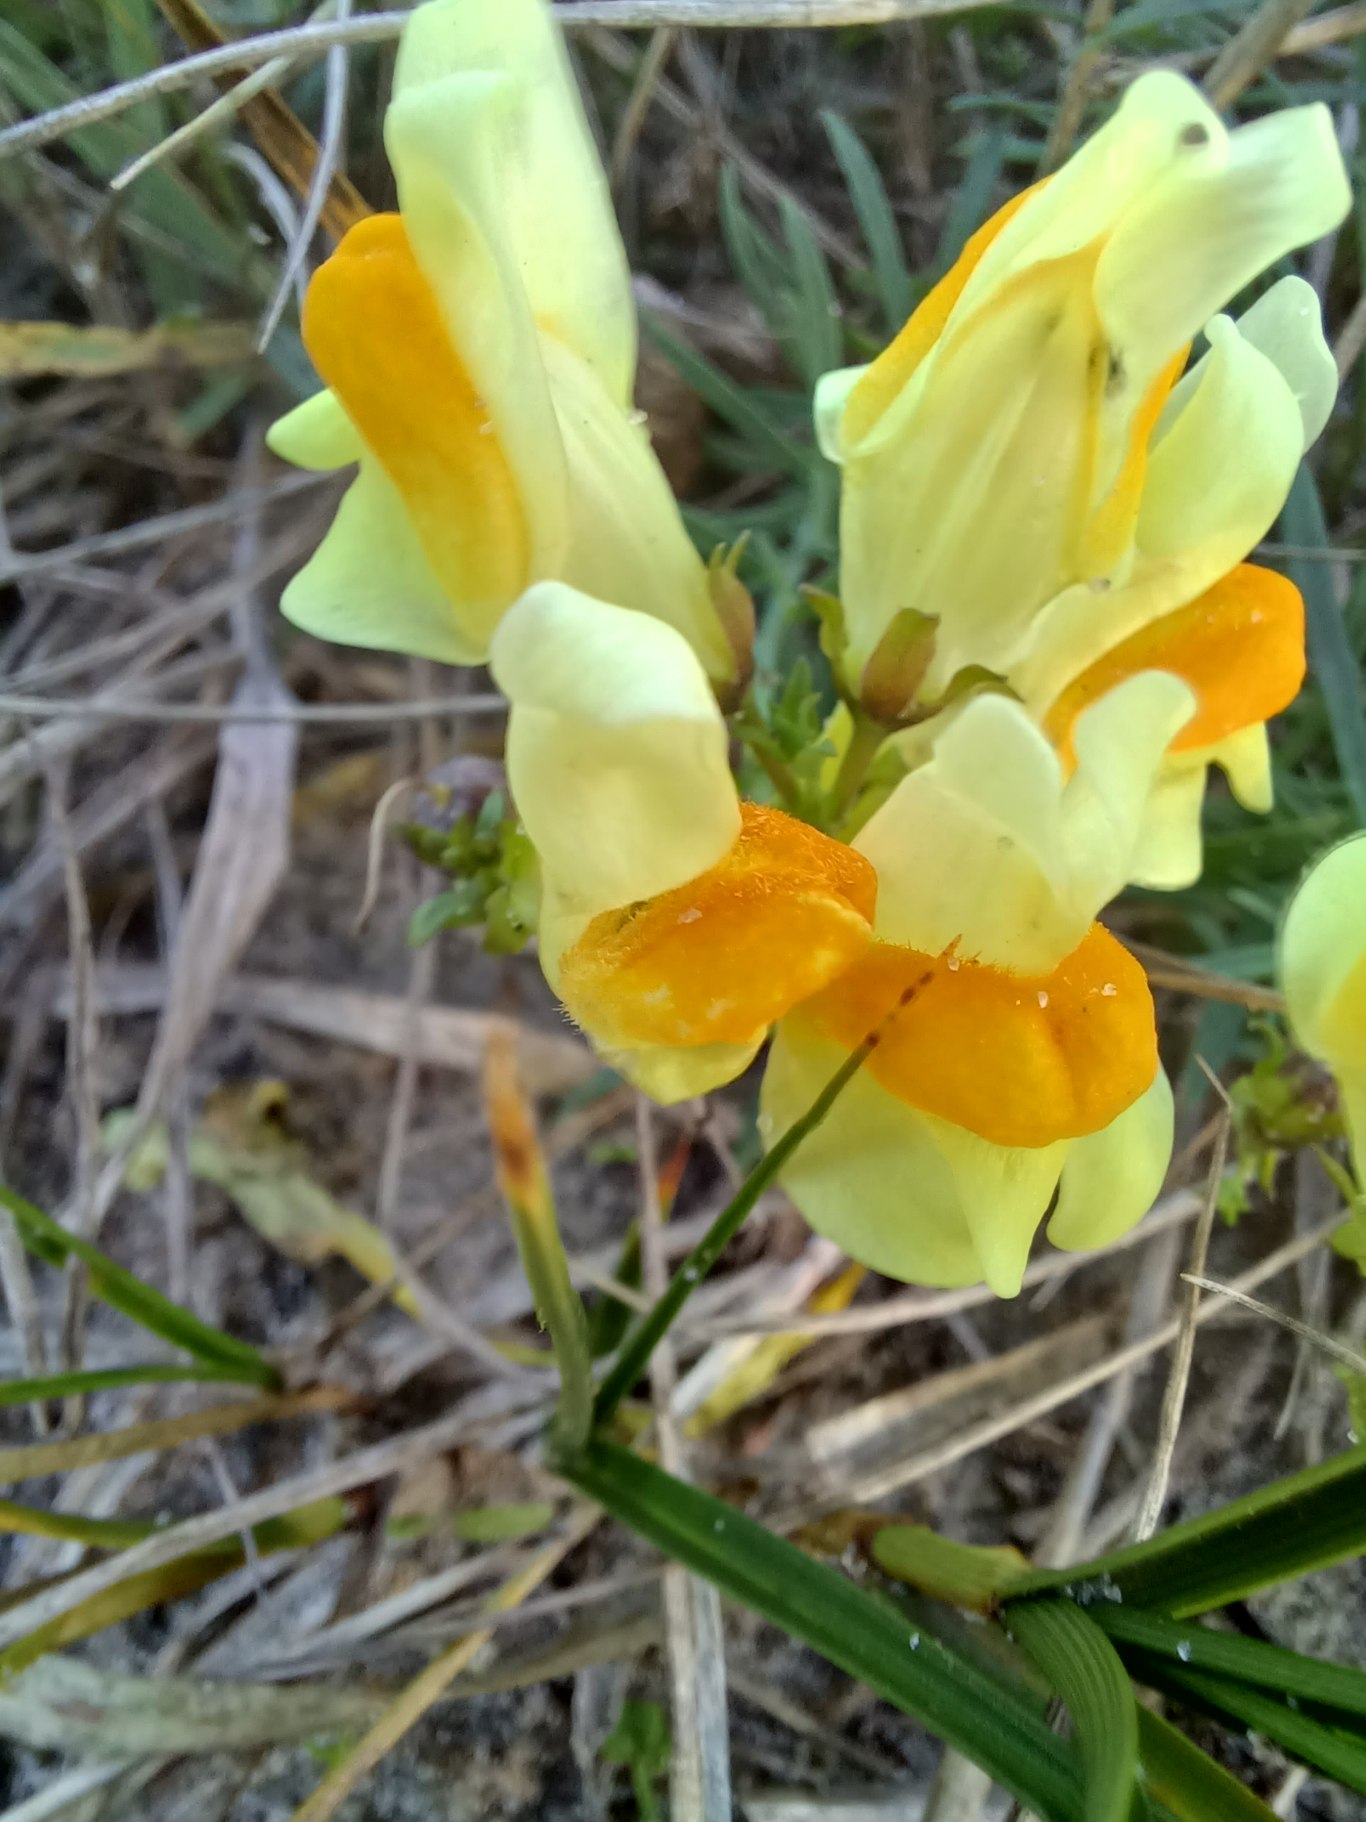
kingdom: Plantae
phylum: Tracheophyta
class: Magnoliopsida
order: Lamiales
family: Plantaginaceae
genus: Linaria
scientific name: Linaria vulgaris
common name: Almindelig torskemund
